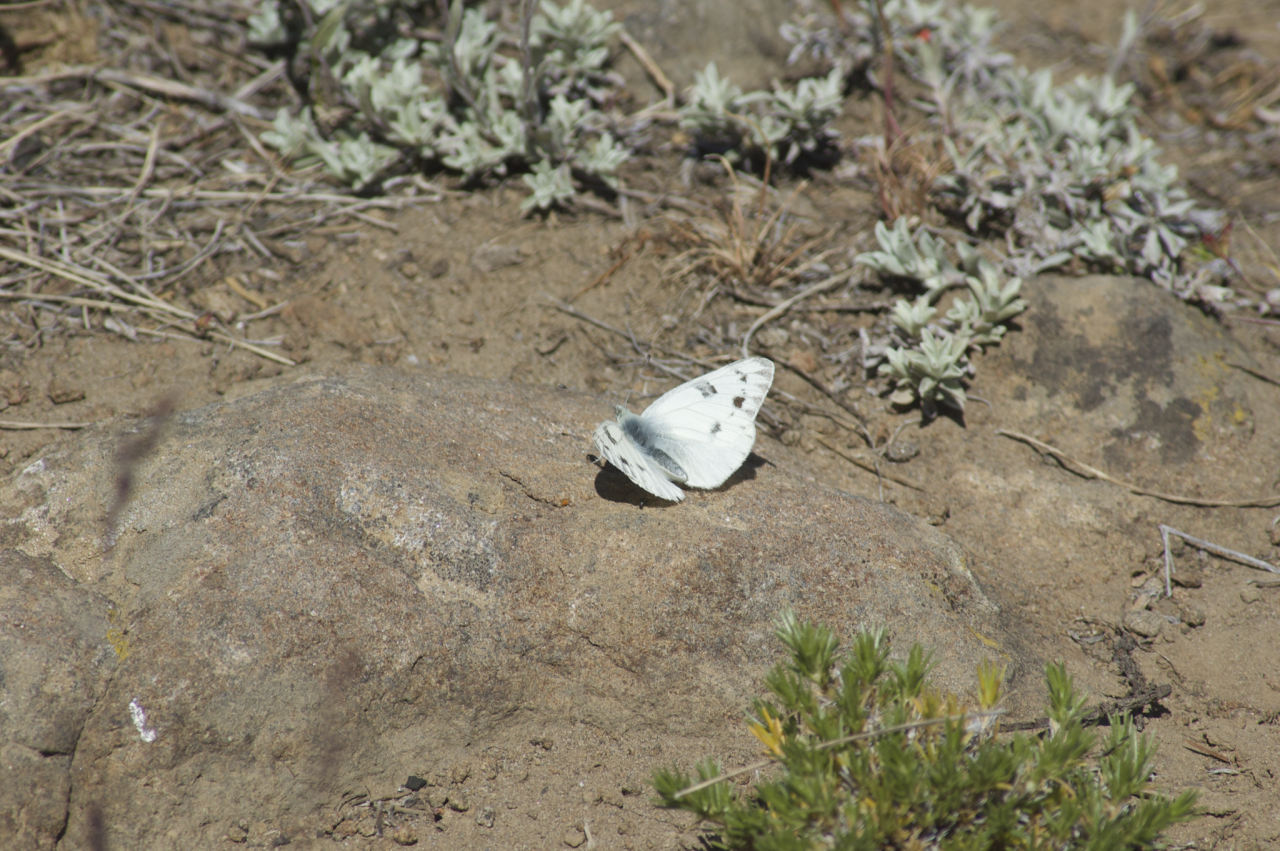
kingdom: Animalia
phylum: Arthropoda
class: Insecta
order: Lepidoptera
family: Pieridae
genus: Pontia
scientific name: Pontia occidentalis
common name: Western White
